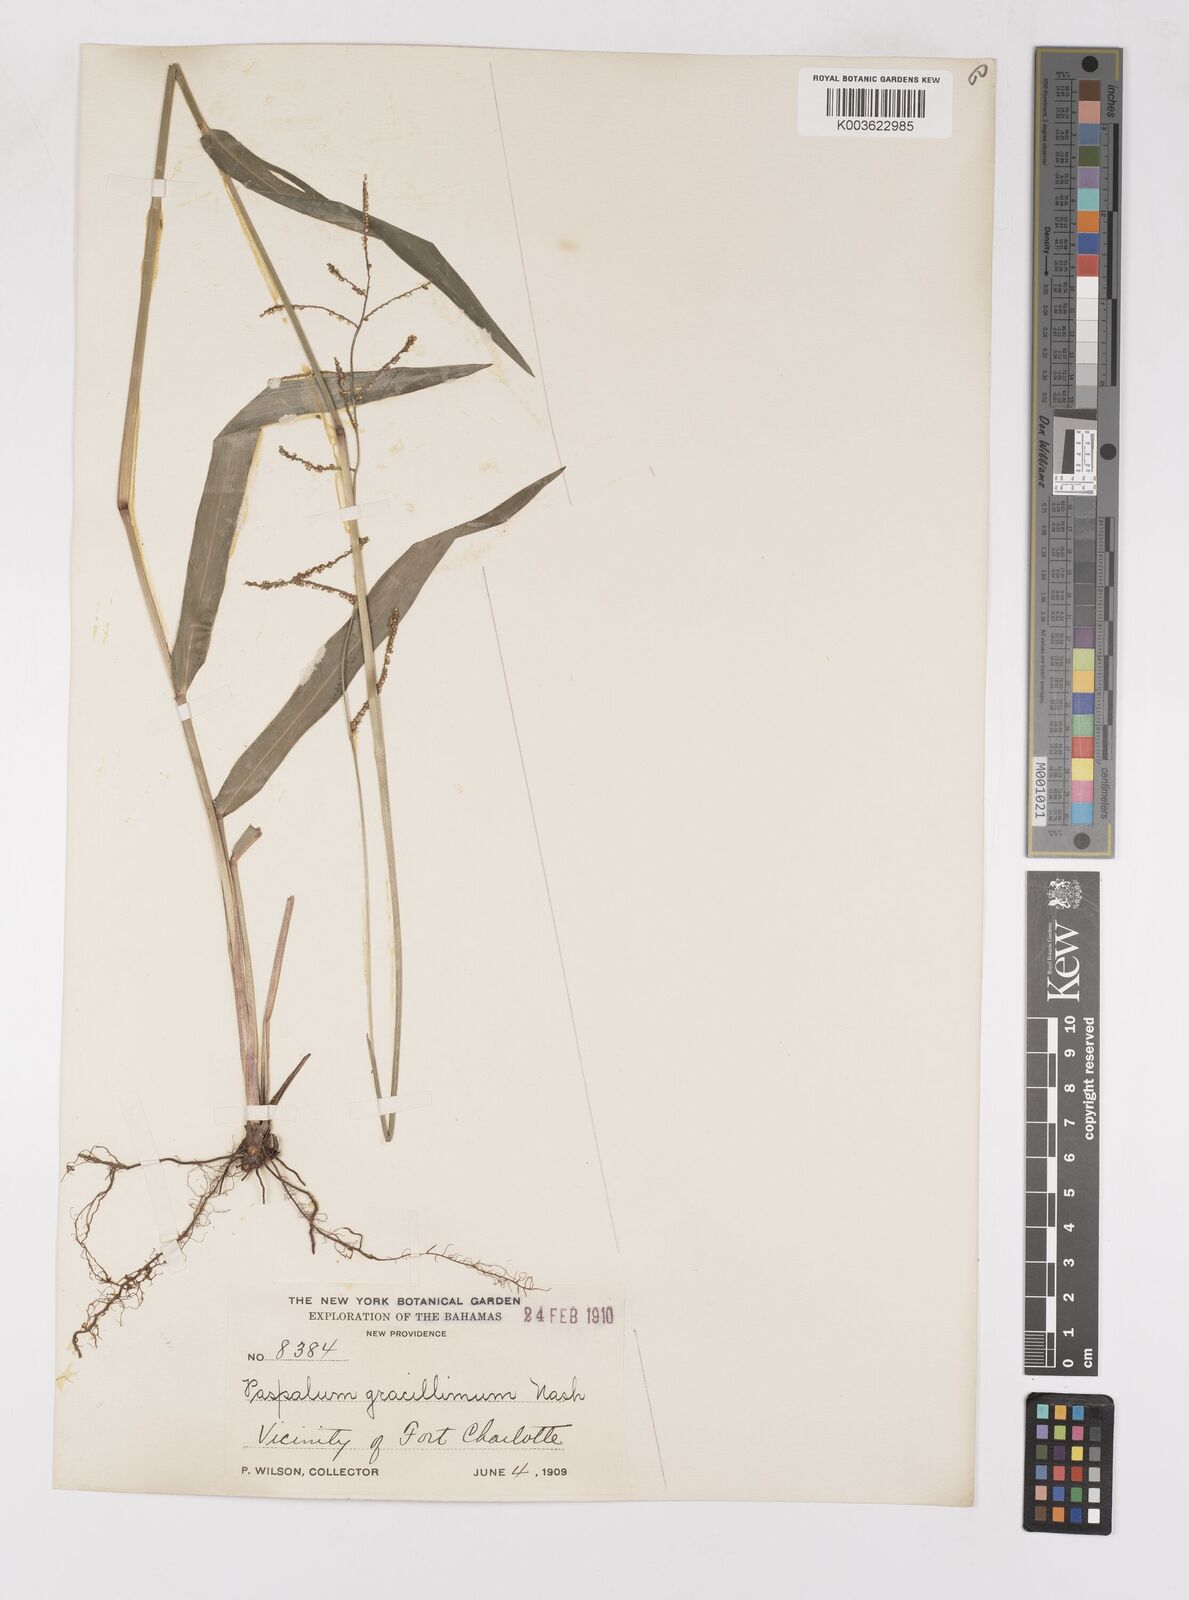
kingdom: Plantae
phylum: Tracheophyta
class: Liliopsida
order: Poales
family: Poaceae
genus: Paspalum
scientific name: Paspalum blodgettii
